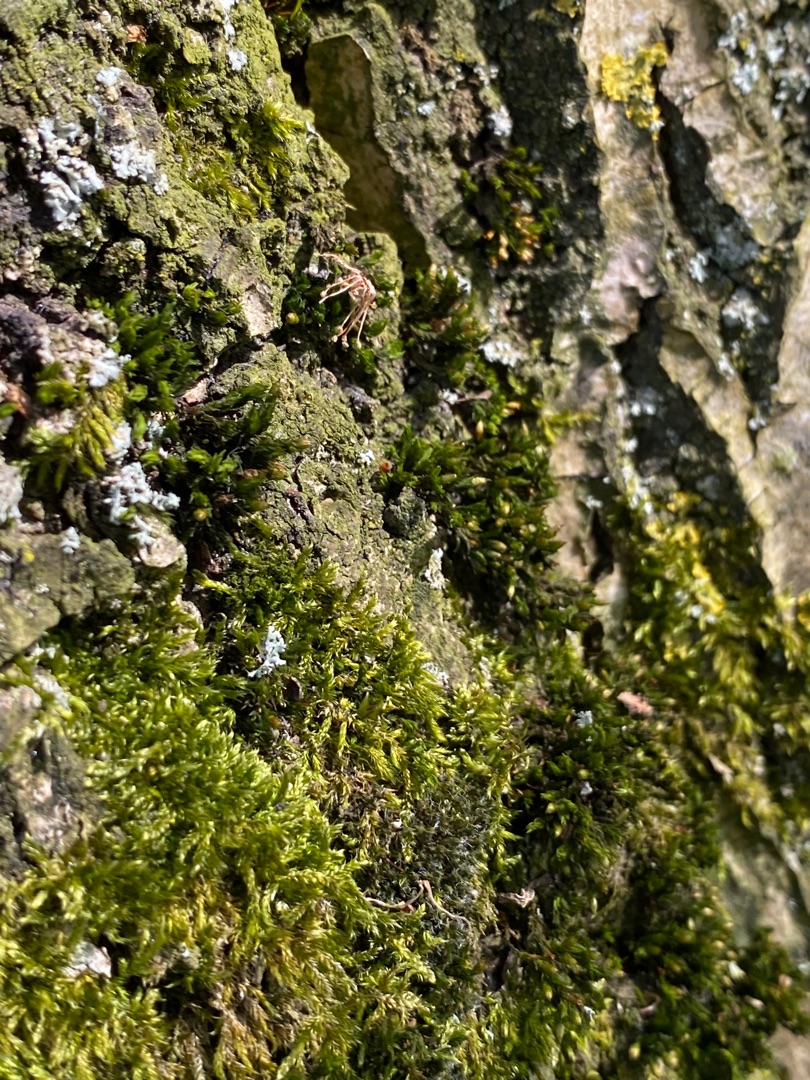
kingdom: Plantae
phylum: Bryophyta
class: Bryopsida
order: Orthotrichales
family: Orthotrichaceae
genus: Lewinskya
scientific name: Lewinskya affinis
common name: Almindelig furehætte
